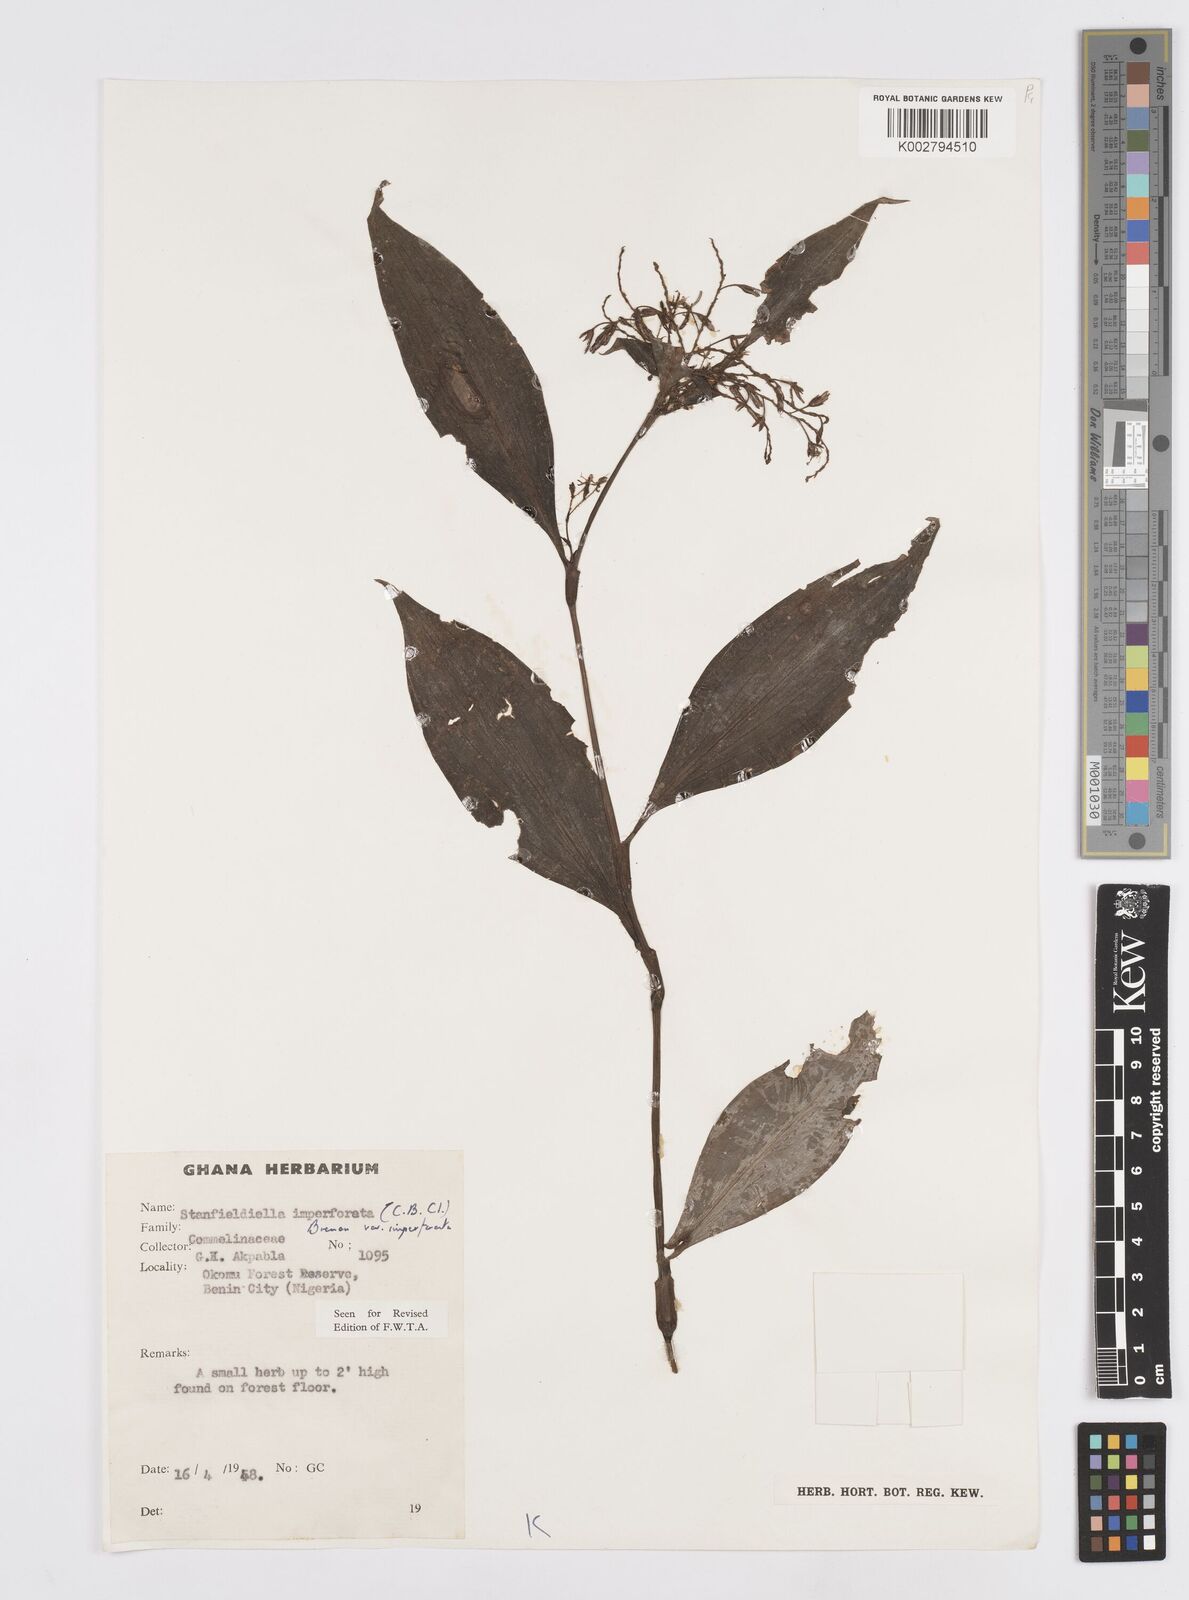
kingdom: Plantae
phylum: Tracheophyta
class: Liliopsida
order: Commelinales
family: Commelinaceae
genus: Stanfieldiella
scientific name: Stanfieldiella imperforata
